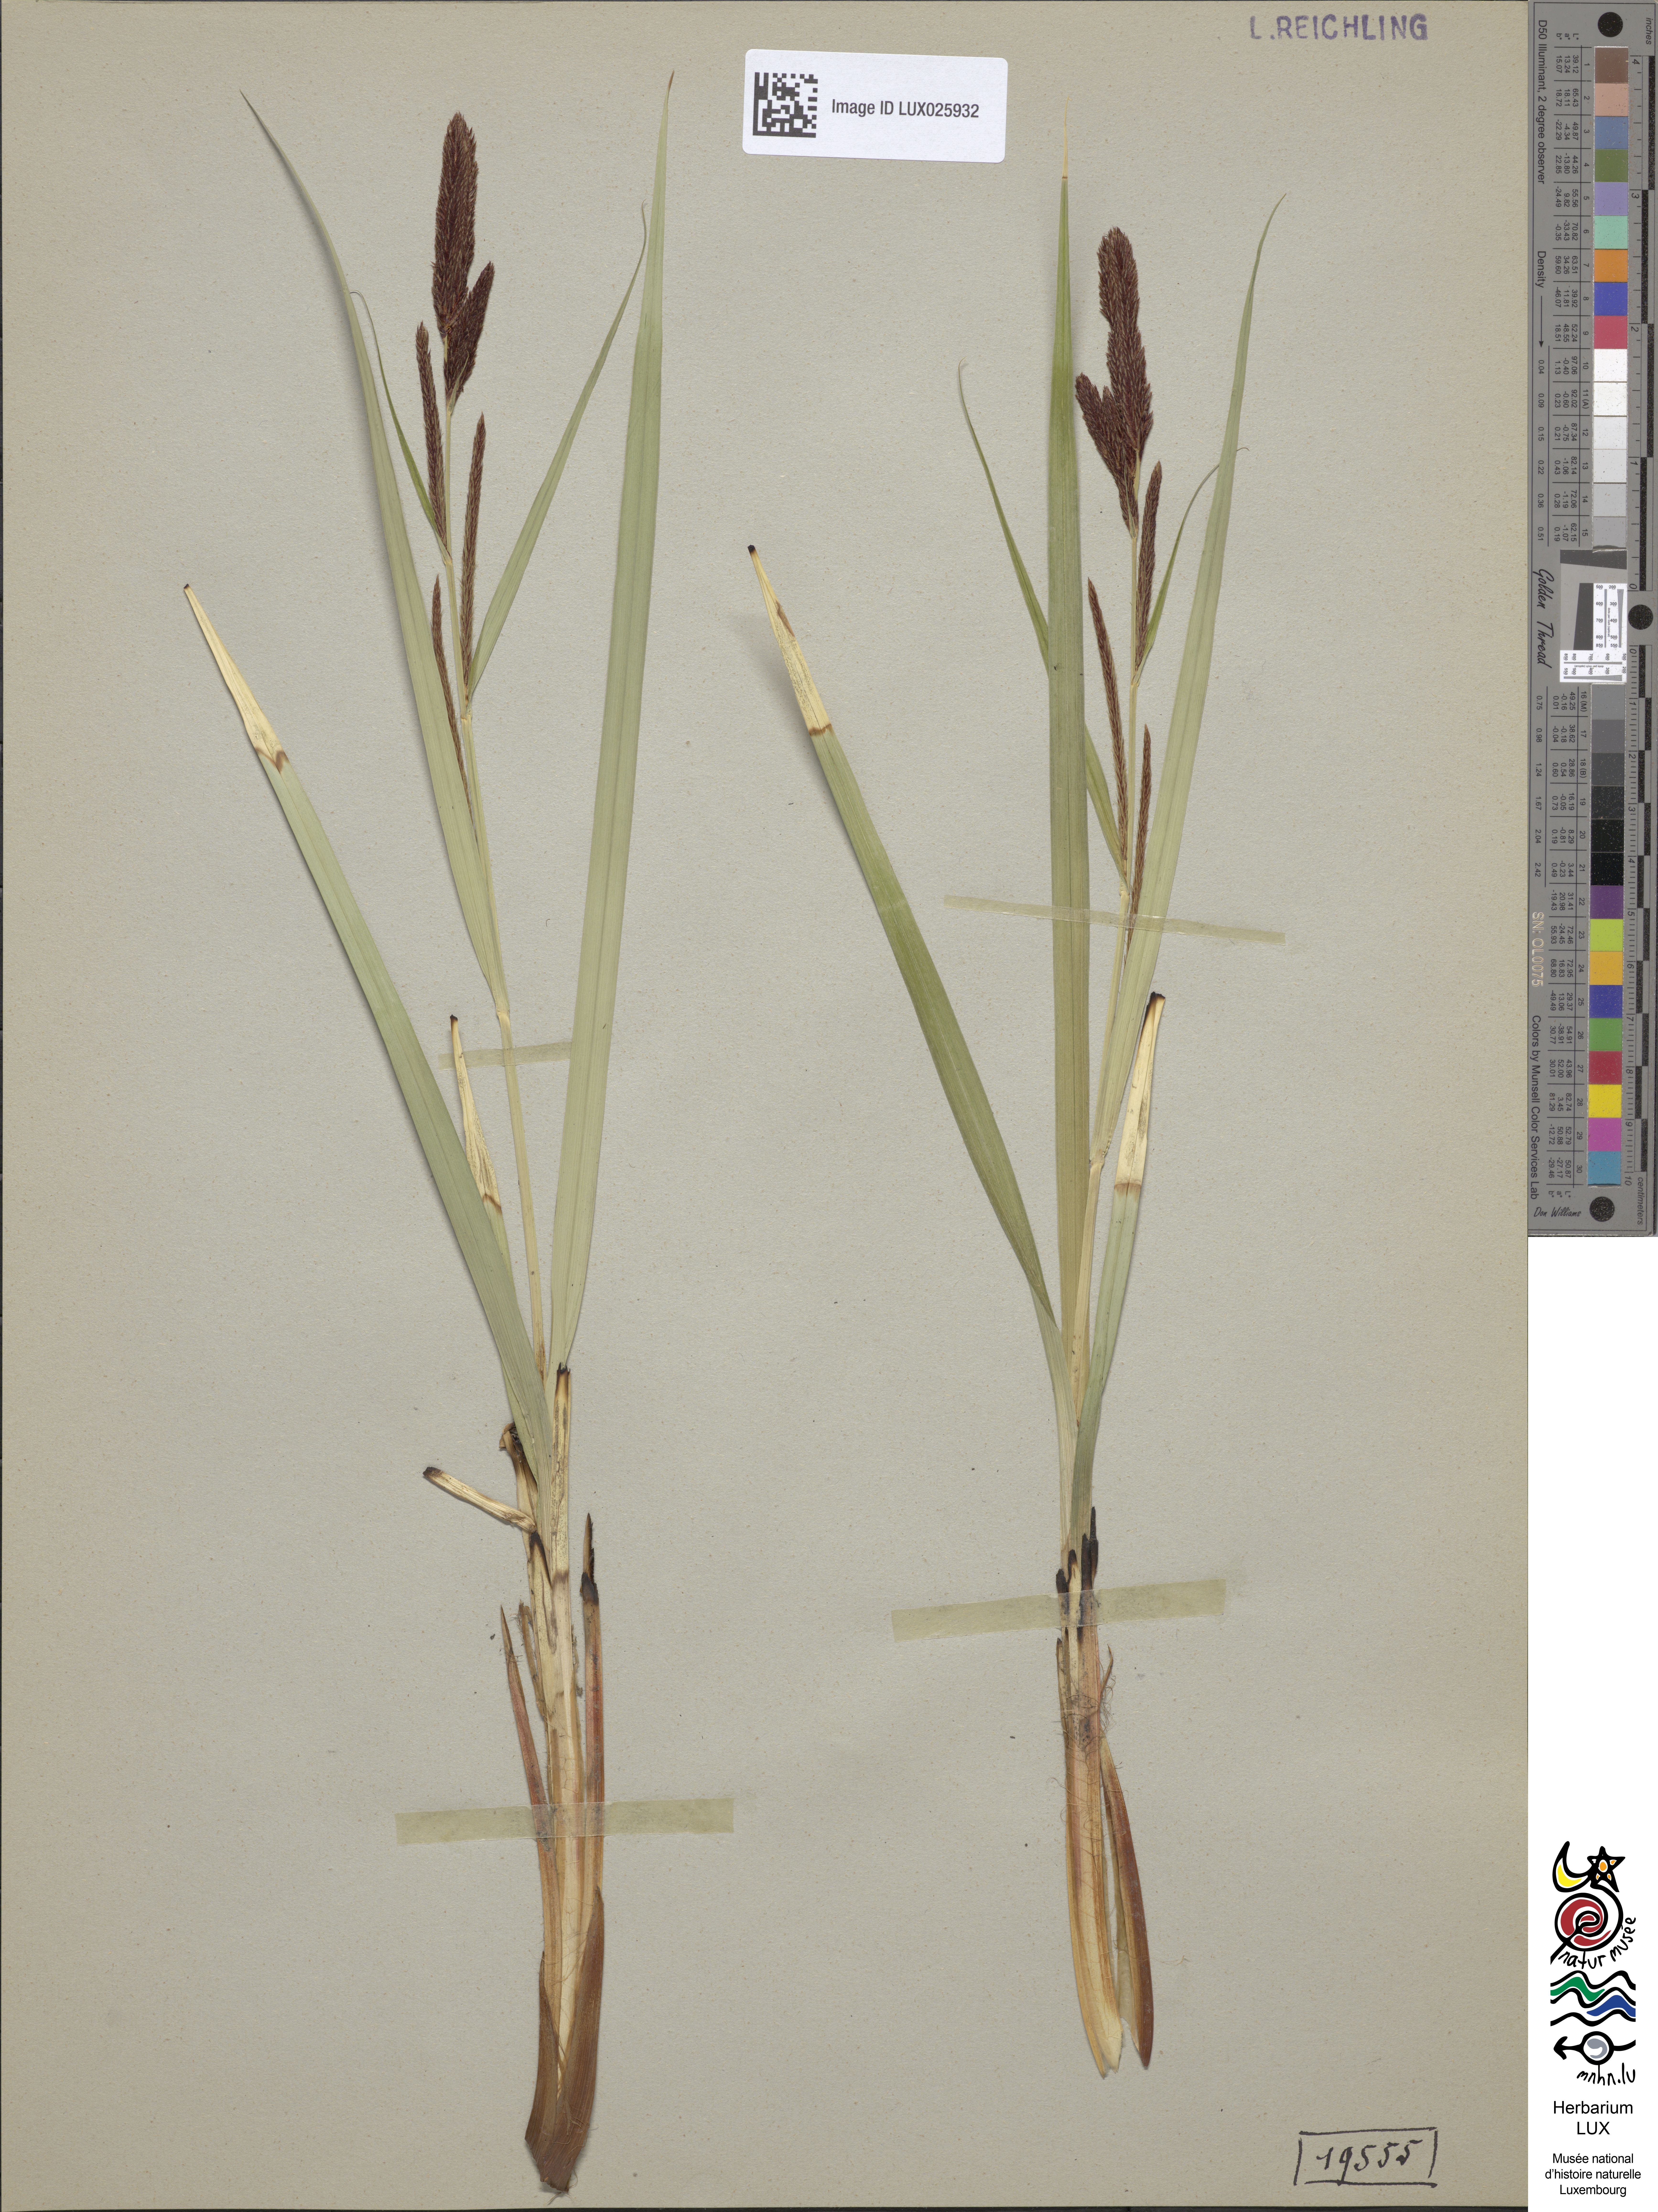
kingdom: Plantae
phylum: Tracheophyta
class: Liliopsida
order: Poales
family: Cyperaceae
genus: Carex
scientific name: Carex acutiformis
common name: Lesser pond-sedge
